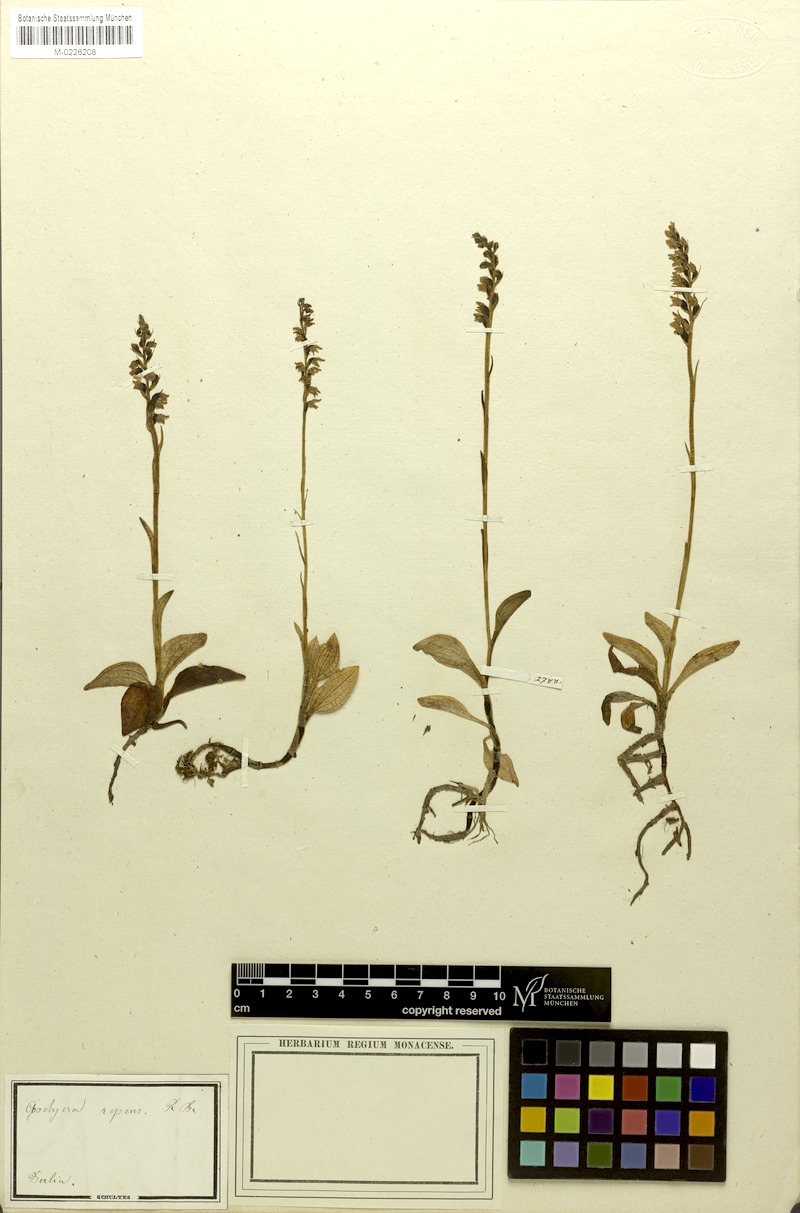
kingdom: Plantae
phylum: Tracheophyta
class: Liliopsida
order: Asparagales
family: Orchidaceae
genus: Goodyera
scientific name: Goodyera repens
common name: Creeping lady's-tresses
